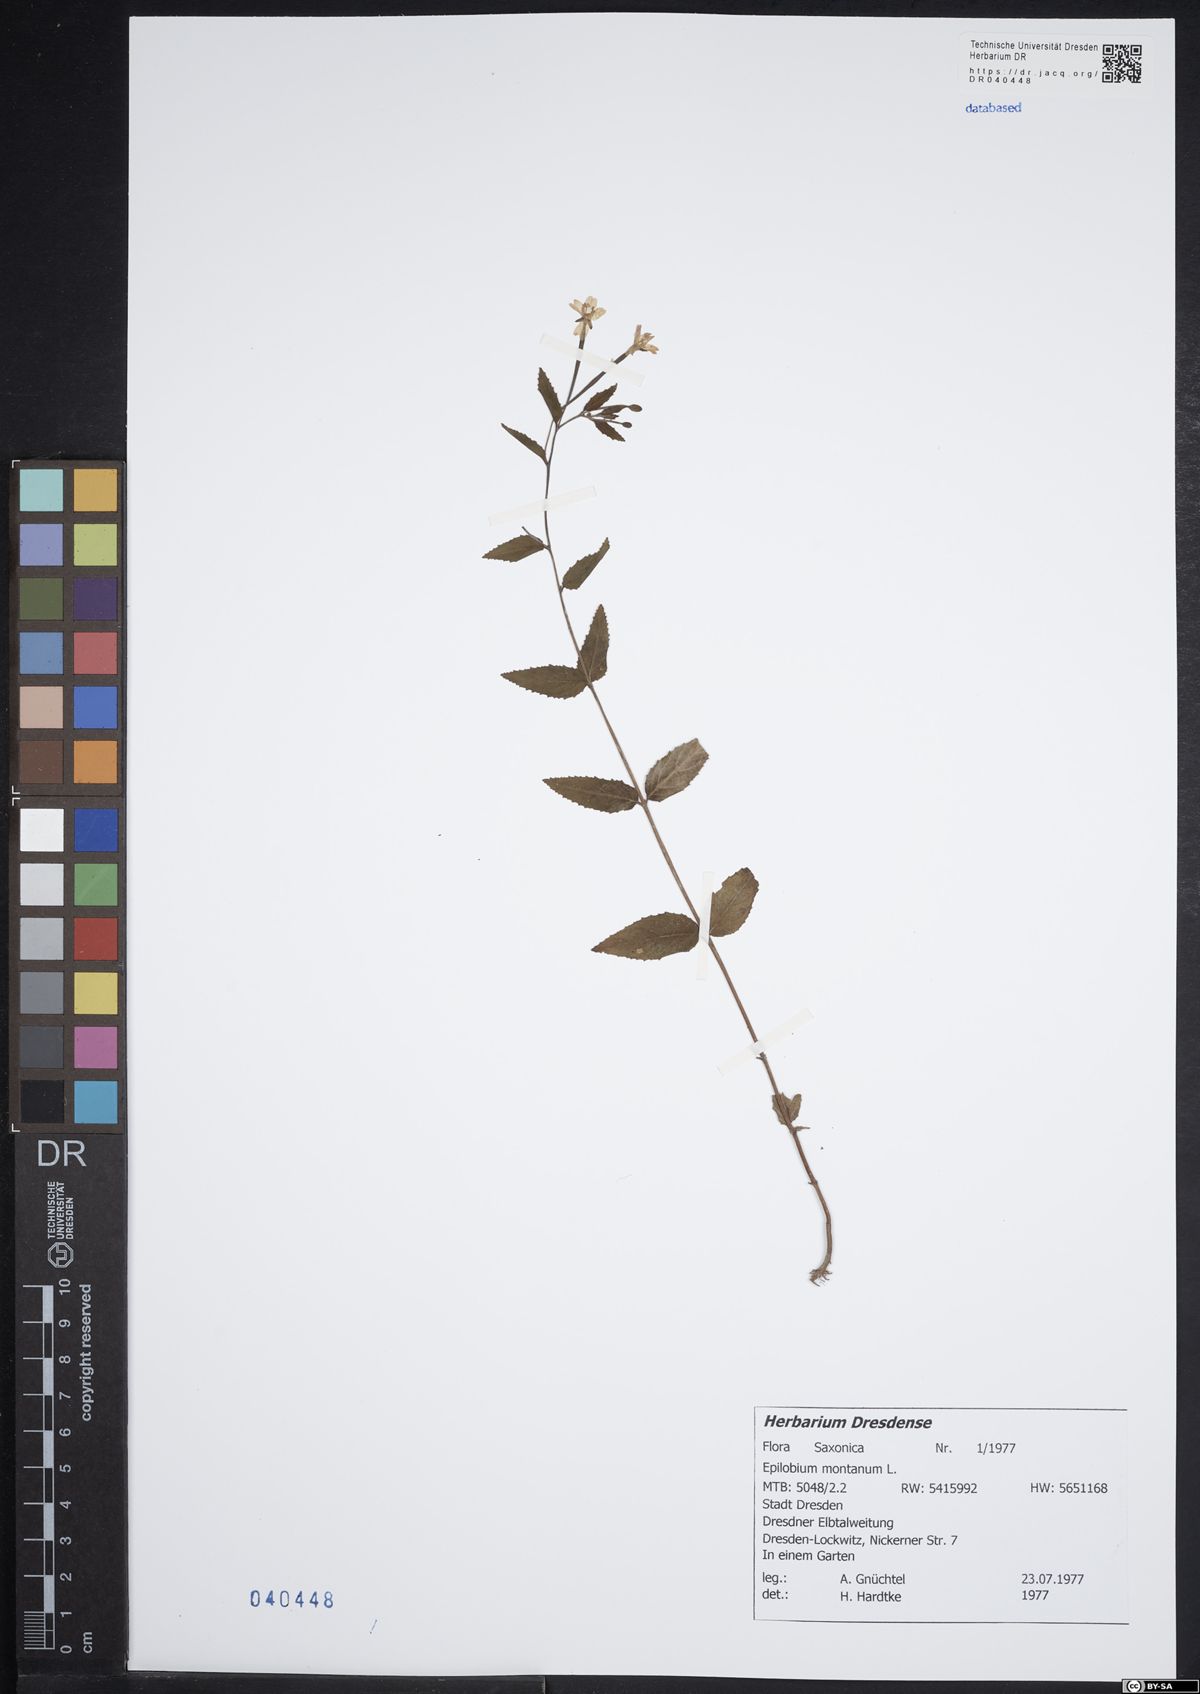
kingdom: Plantae
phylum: Tracheophyta
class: Magnoliopsida
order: Myrtales
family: Onagraceae
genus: Epilobium
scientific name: Epilobium montanum
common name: Broad-leaved willowherb
